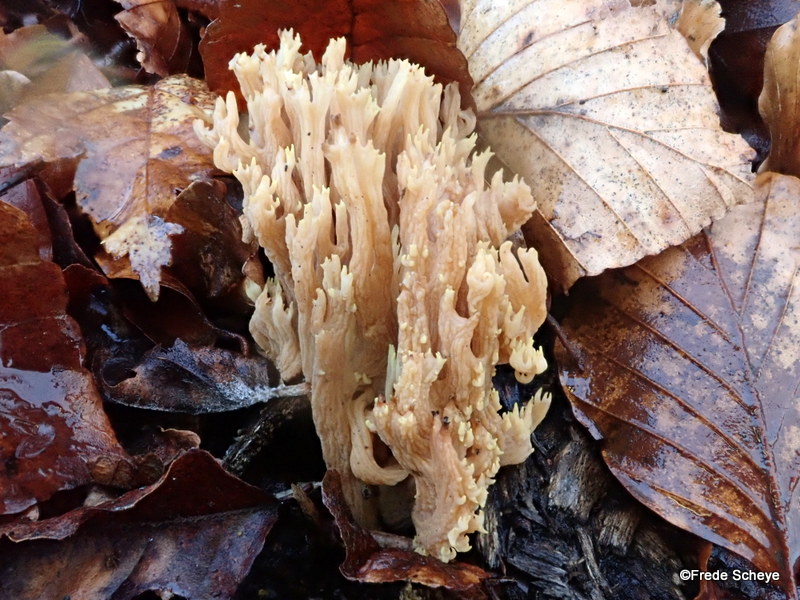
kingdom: Fungi
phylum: Basidiomycota
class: Agaricomycetes
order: Gomphales
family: Gomphaceae
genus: Ramaria
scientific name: Ramaria stricta
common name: rank koralsvamp
